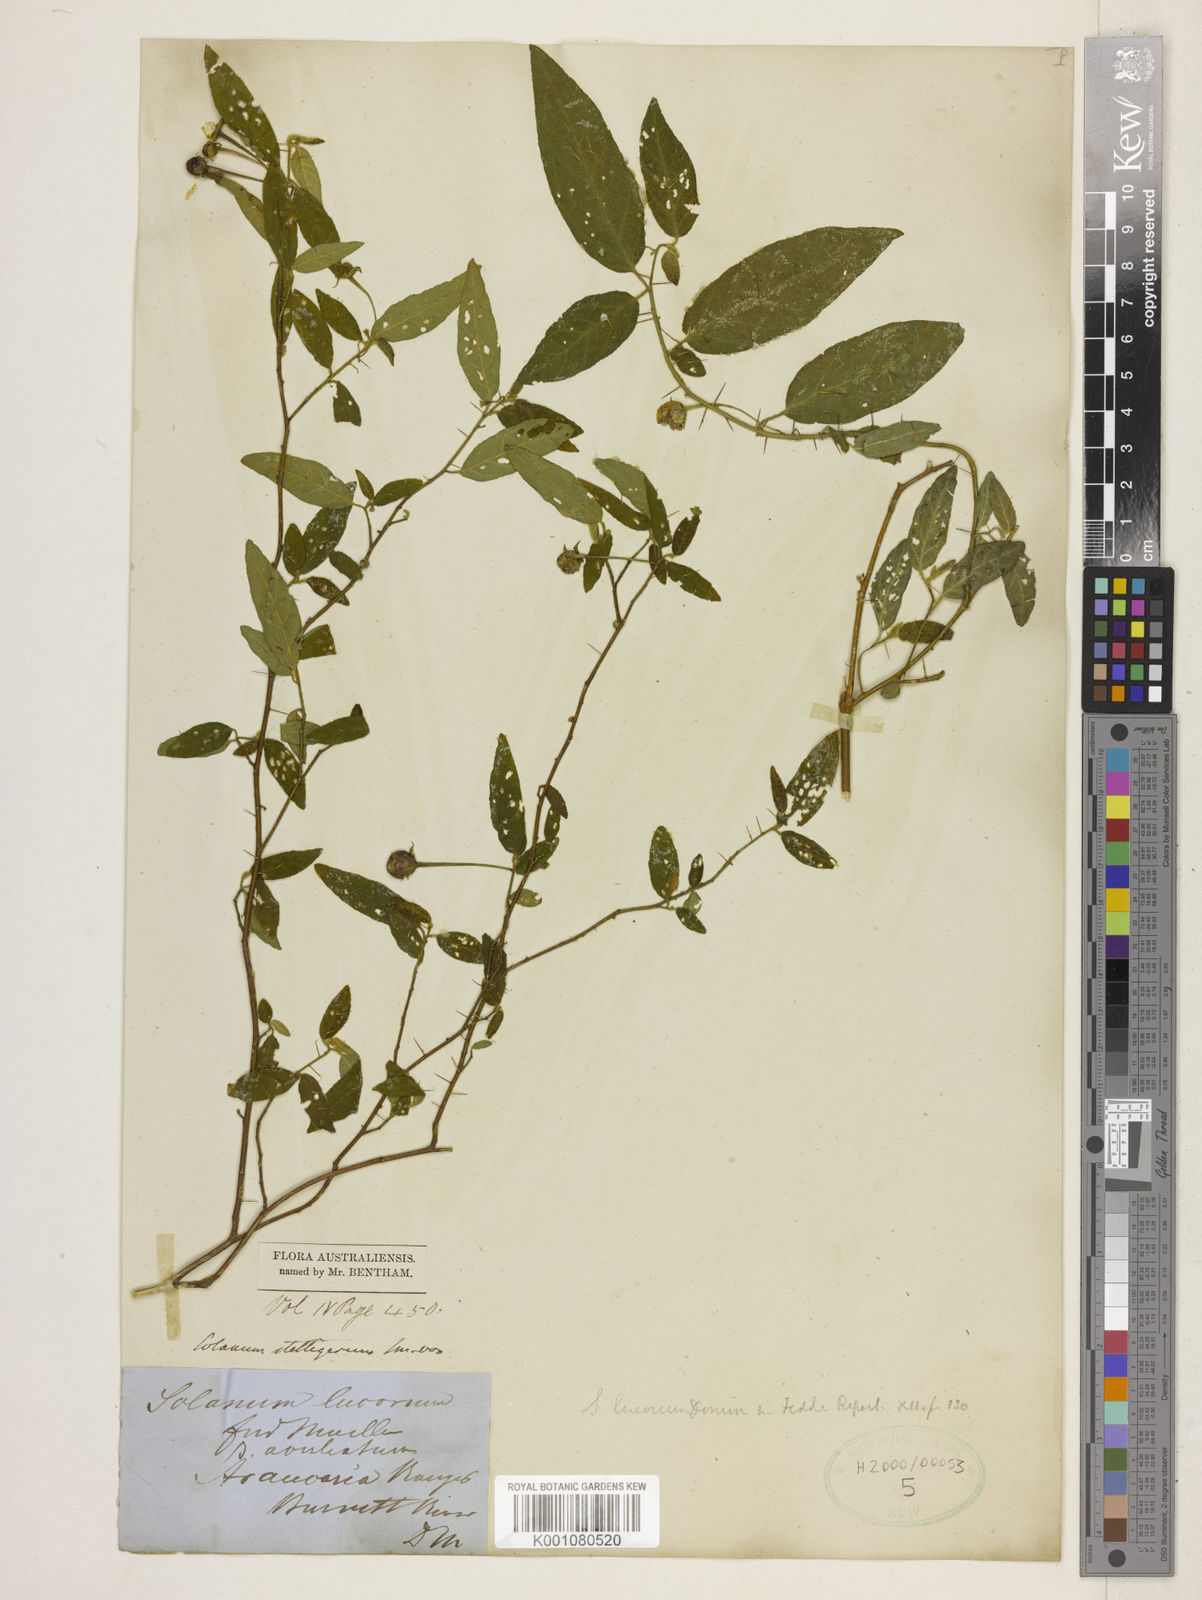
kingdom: Plantae
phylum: Tracheophyta
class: Magnoliopsida
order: Solanales
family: Solanaceae
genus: Solanum
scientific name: Solanum stelligerum
